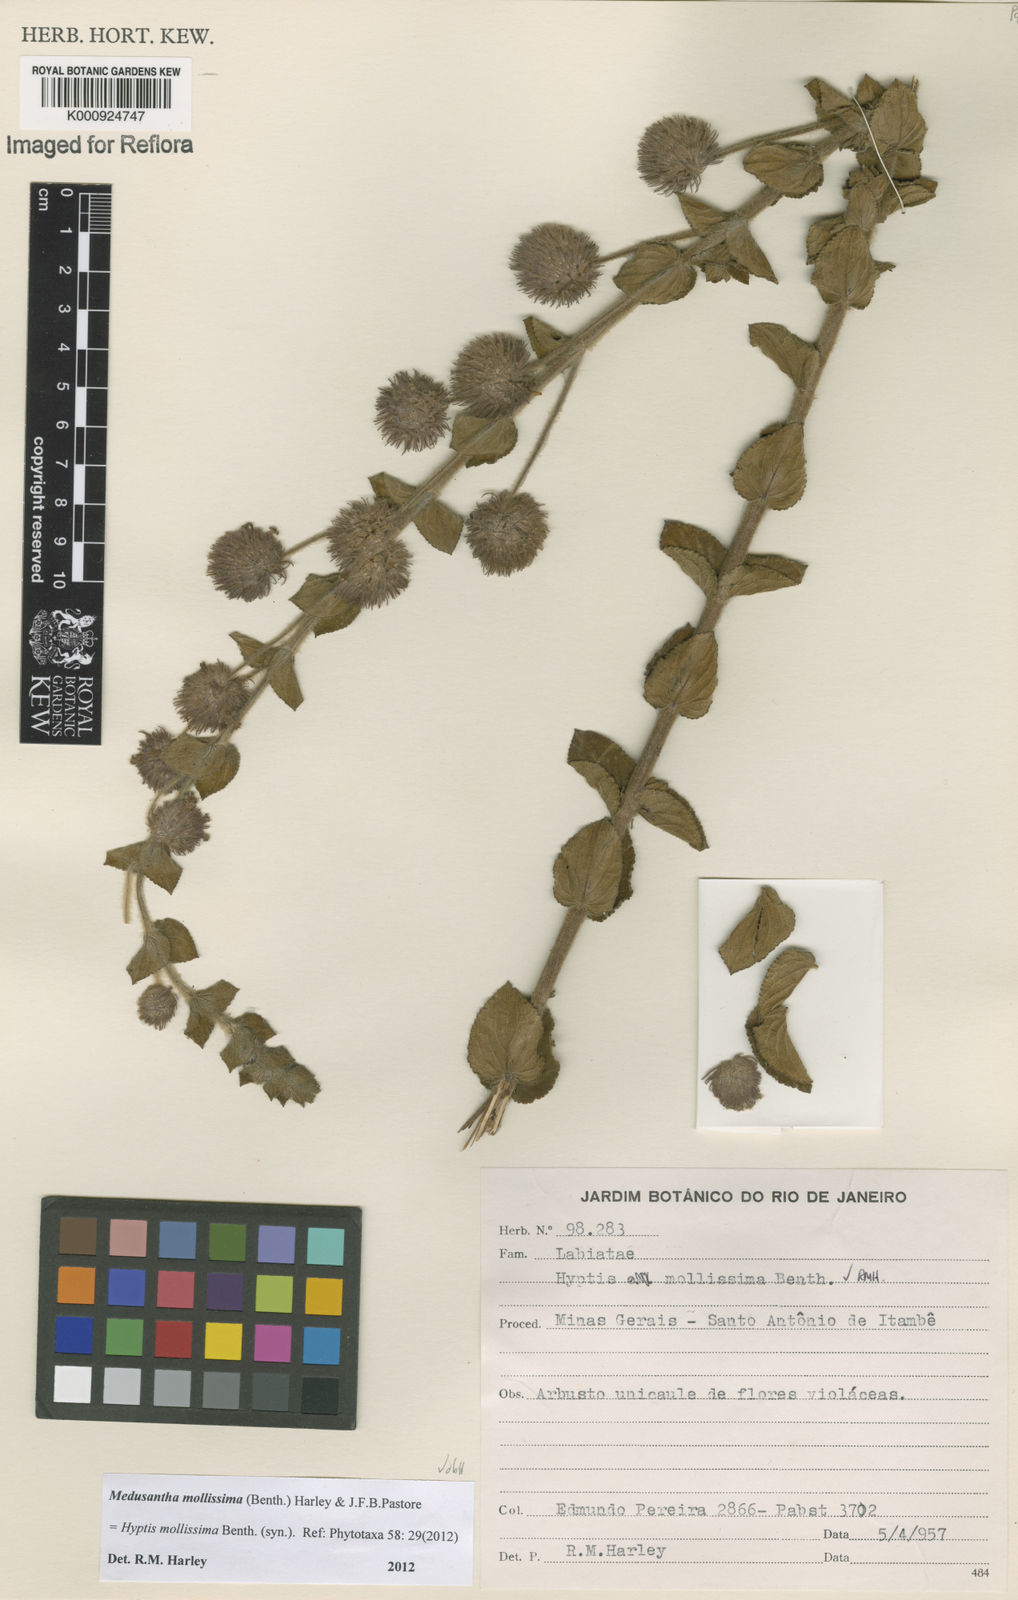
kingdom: Plantae
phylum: Tracheophyta
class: Magnoliopsida
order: Lamiales
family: Lamiaceae
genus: Medusantha
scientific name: Medusantha mollissima
